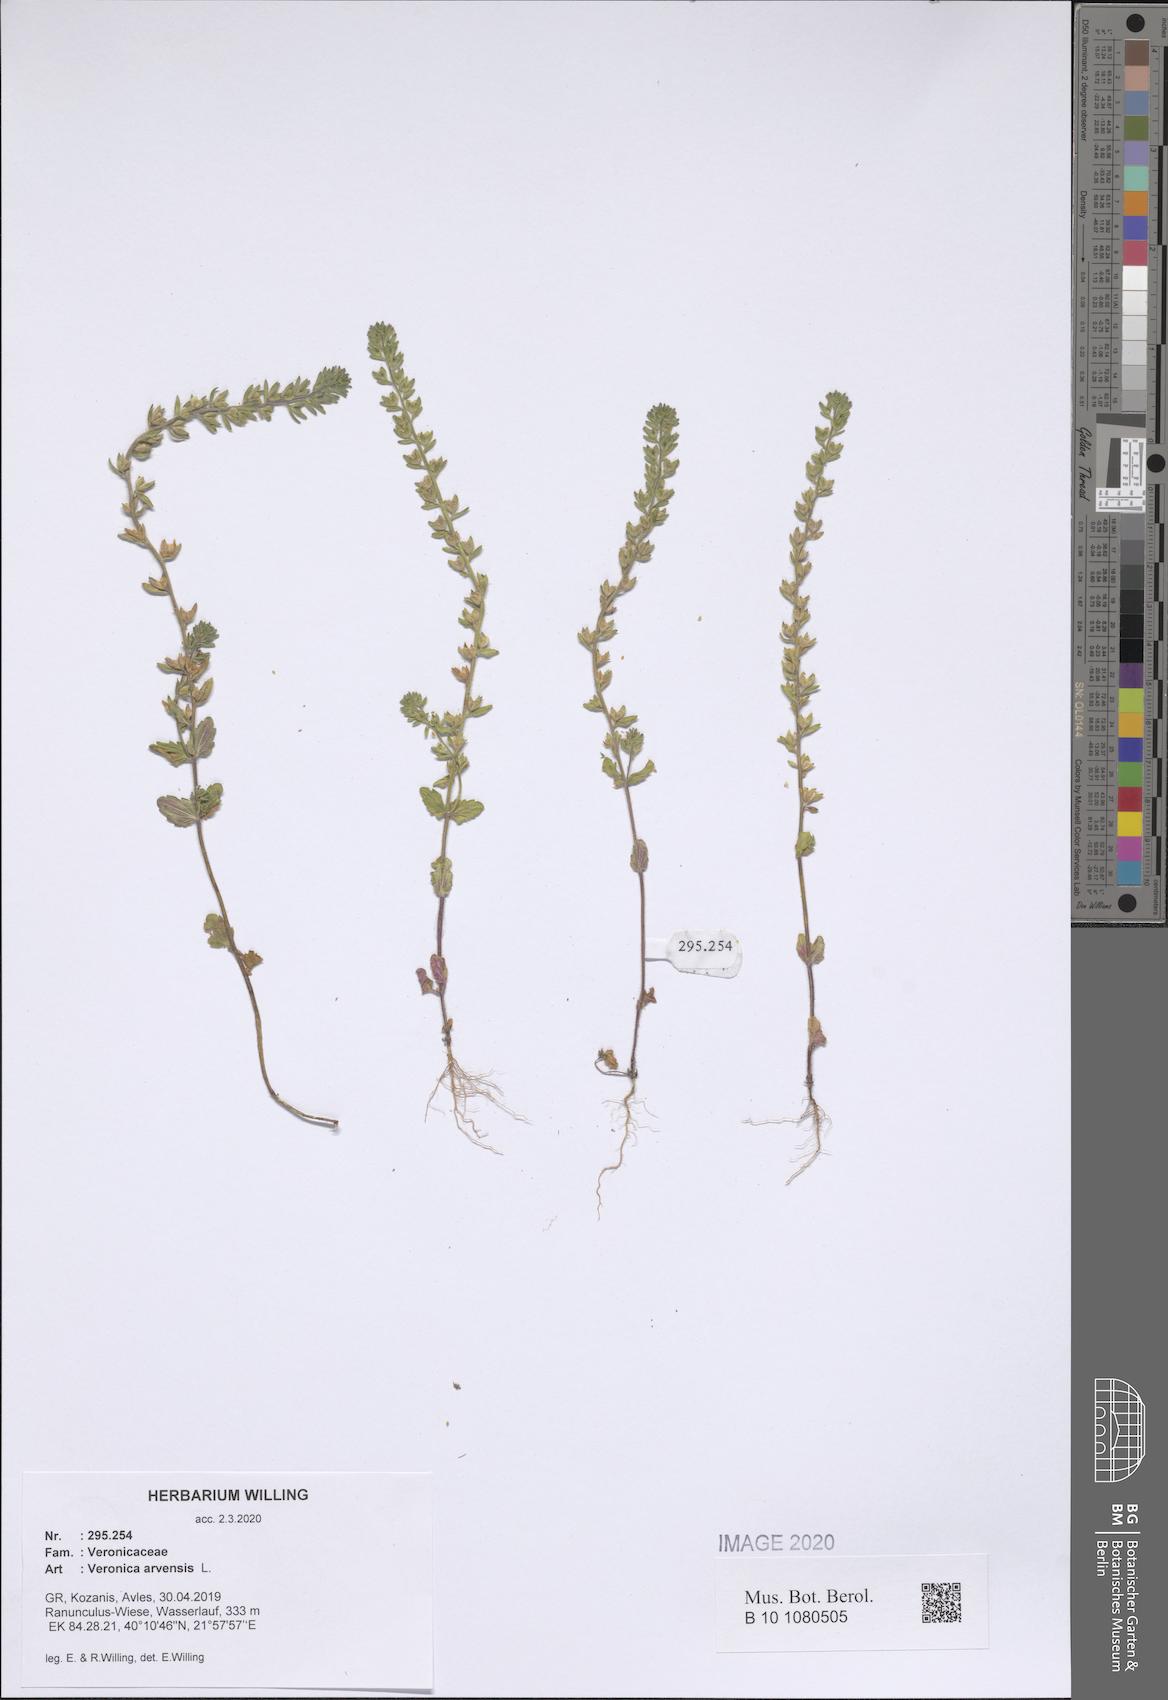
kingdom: Plantae
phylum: Tracheophyta
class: Magnoliopsida
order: Lamiales
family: Plantaginaceae
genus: Veronica
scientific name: Veronica arvensis
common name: Corn speedwell
